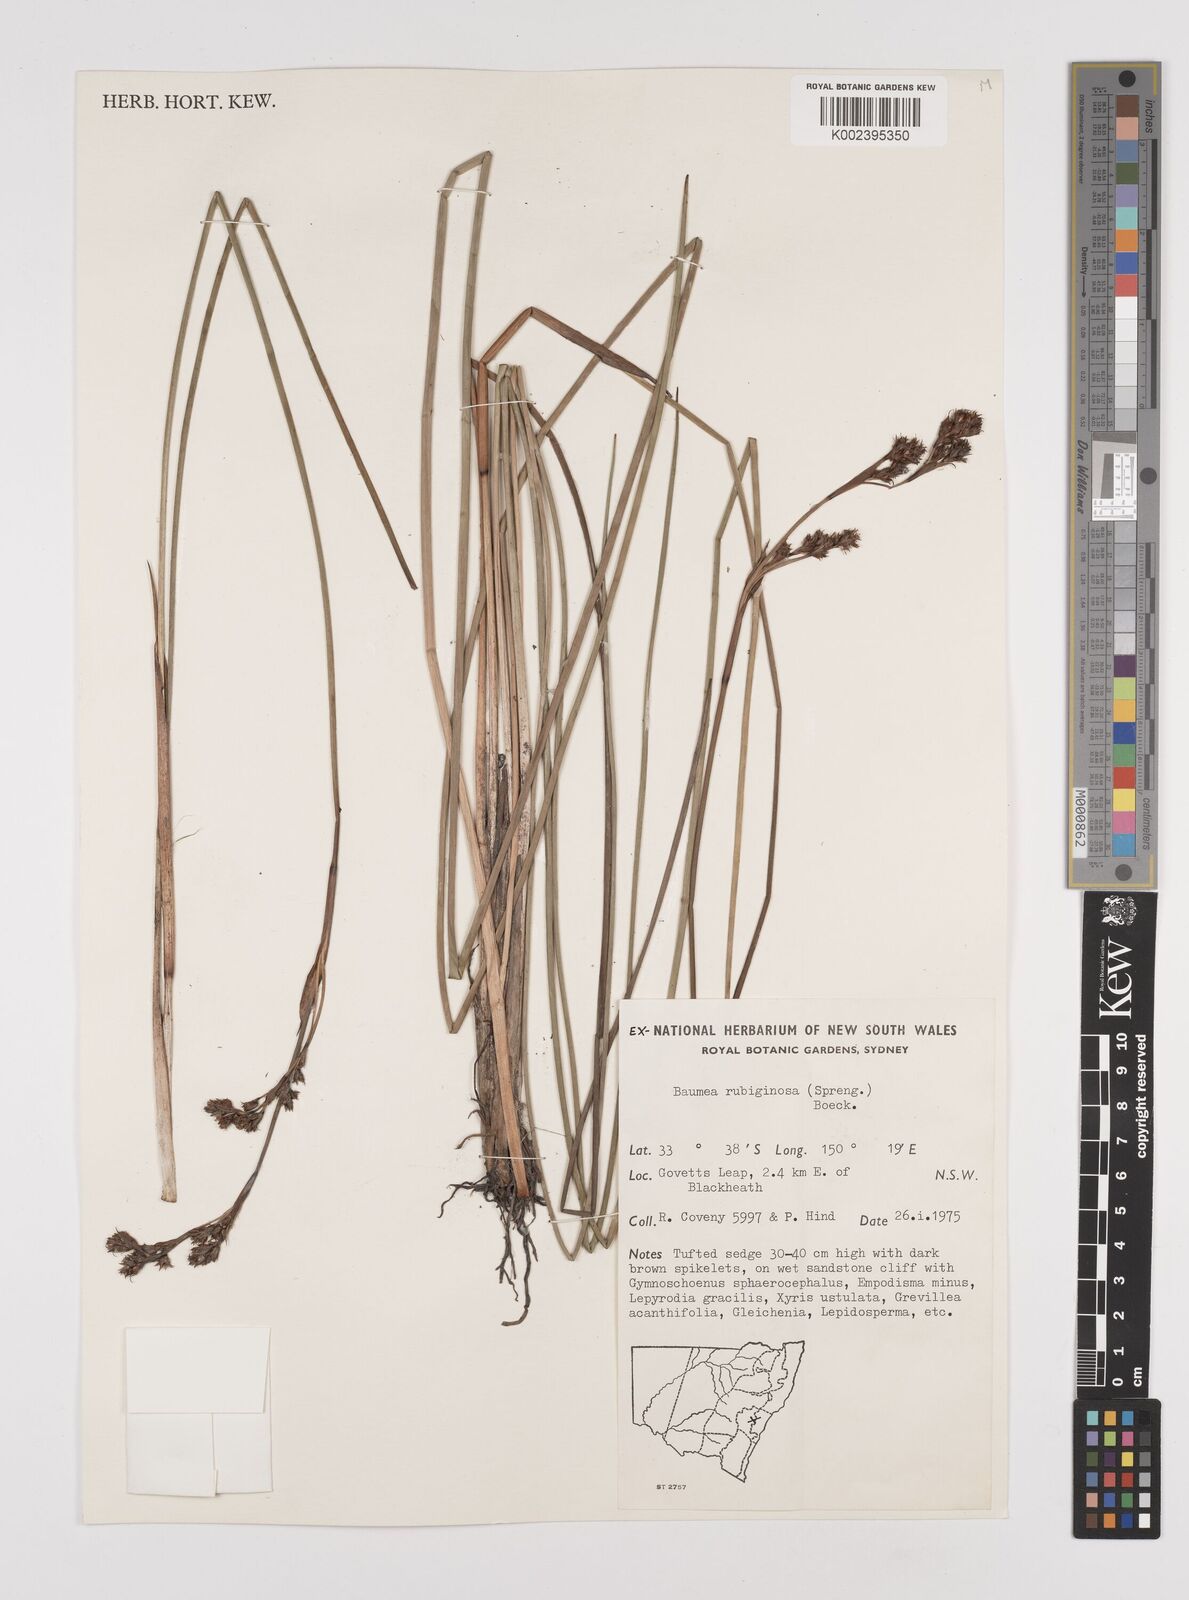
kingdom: Plantae
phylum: Tracheophyta
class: Liliopsida
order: Poales
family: Cyperaceae
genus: Machaerina
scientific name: Machaerina rubiginosa
